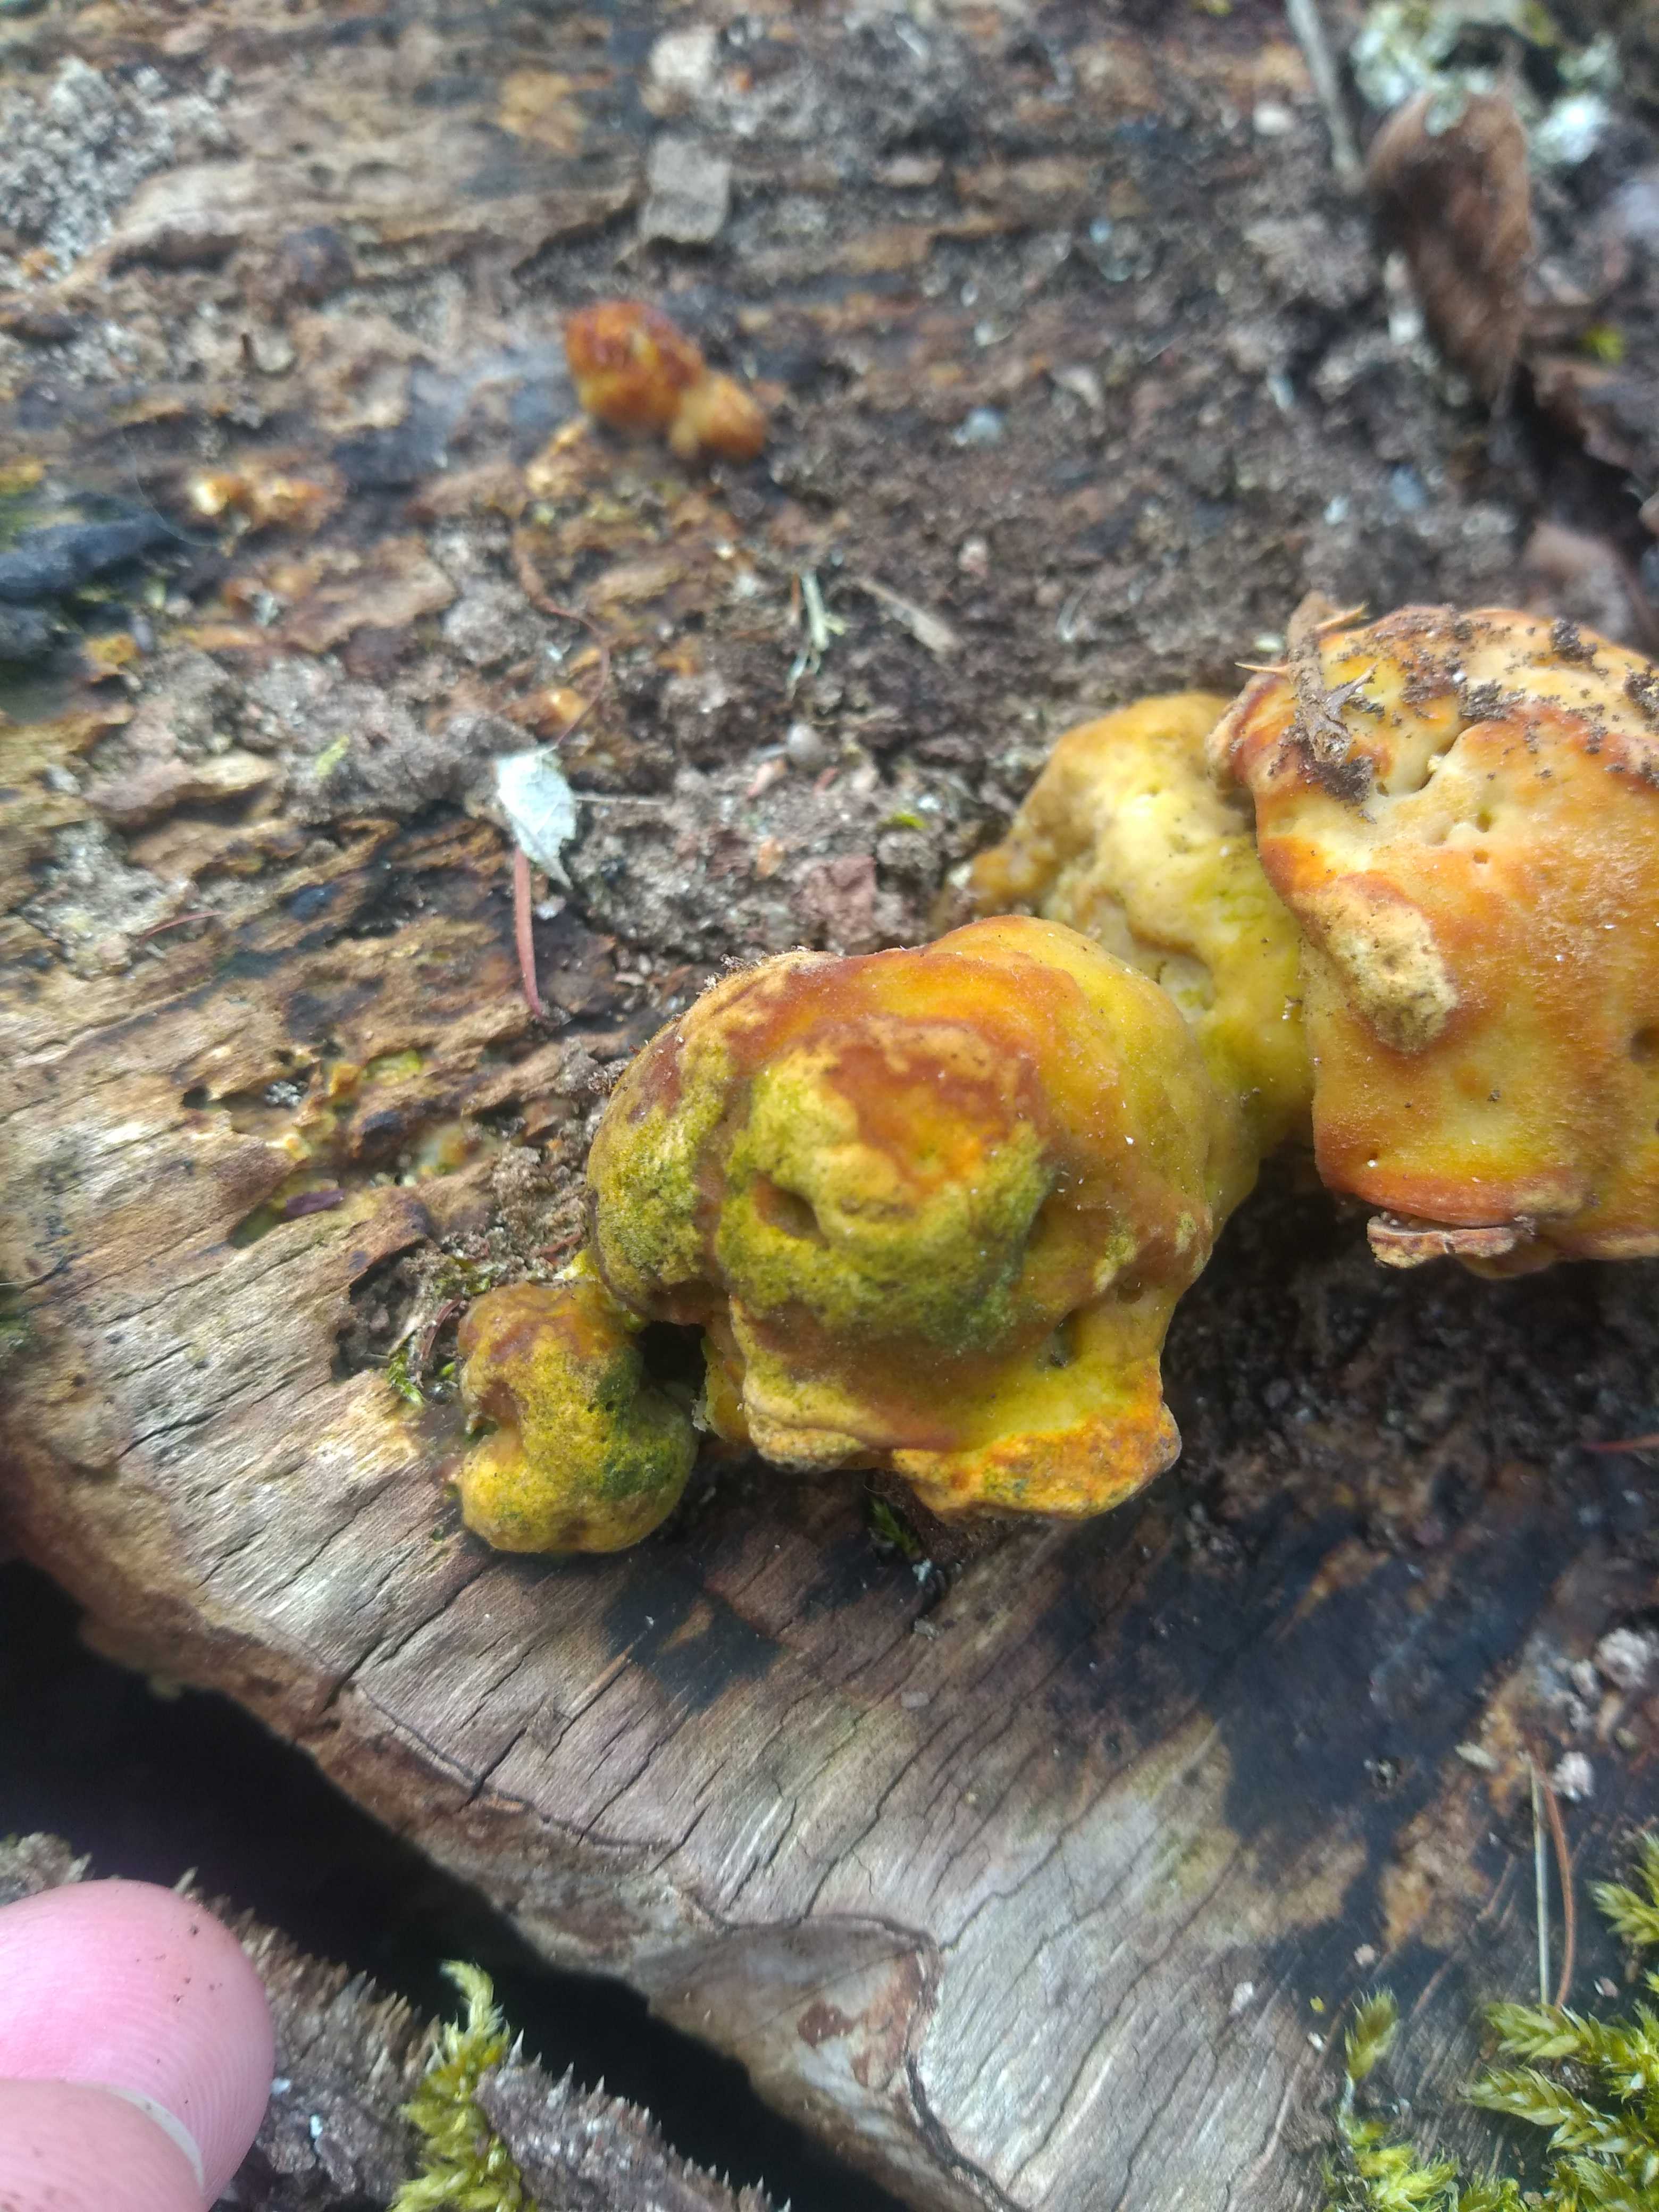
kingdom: Fungi
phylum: Basidiomycota
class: Agaricomycetes
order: Polyporales
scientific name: Polyporales
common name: poresvampordenen
